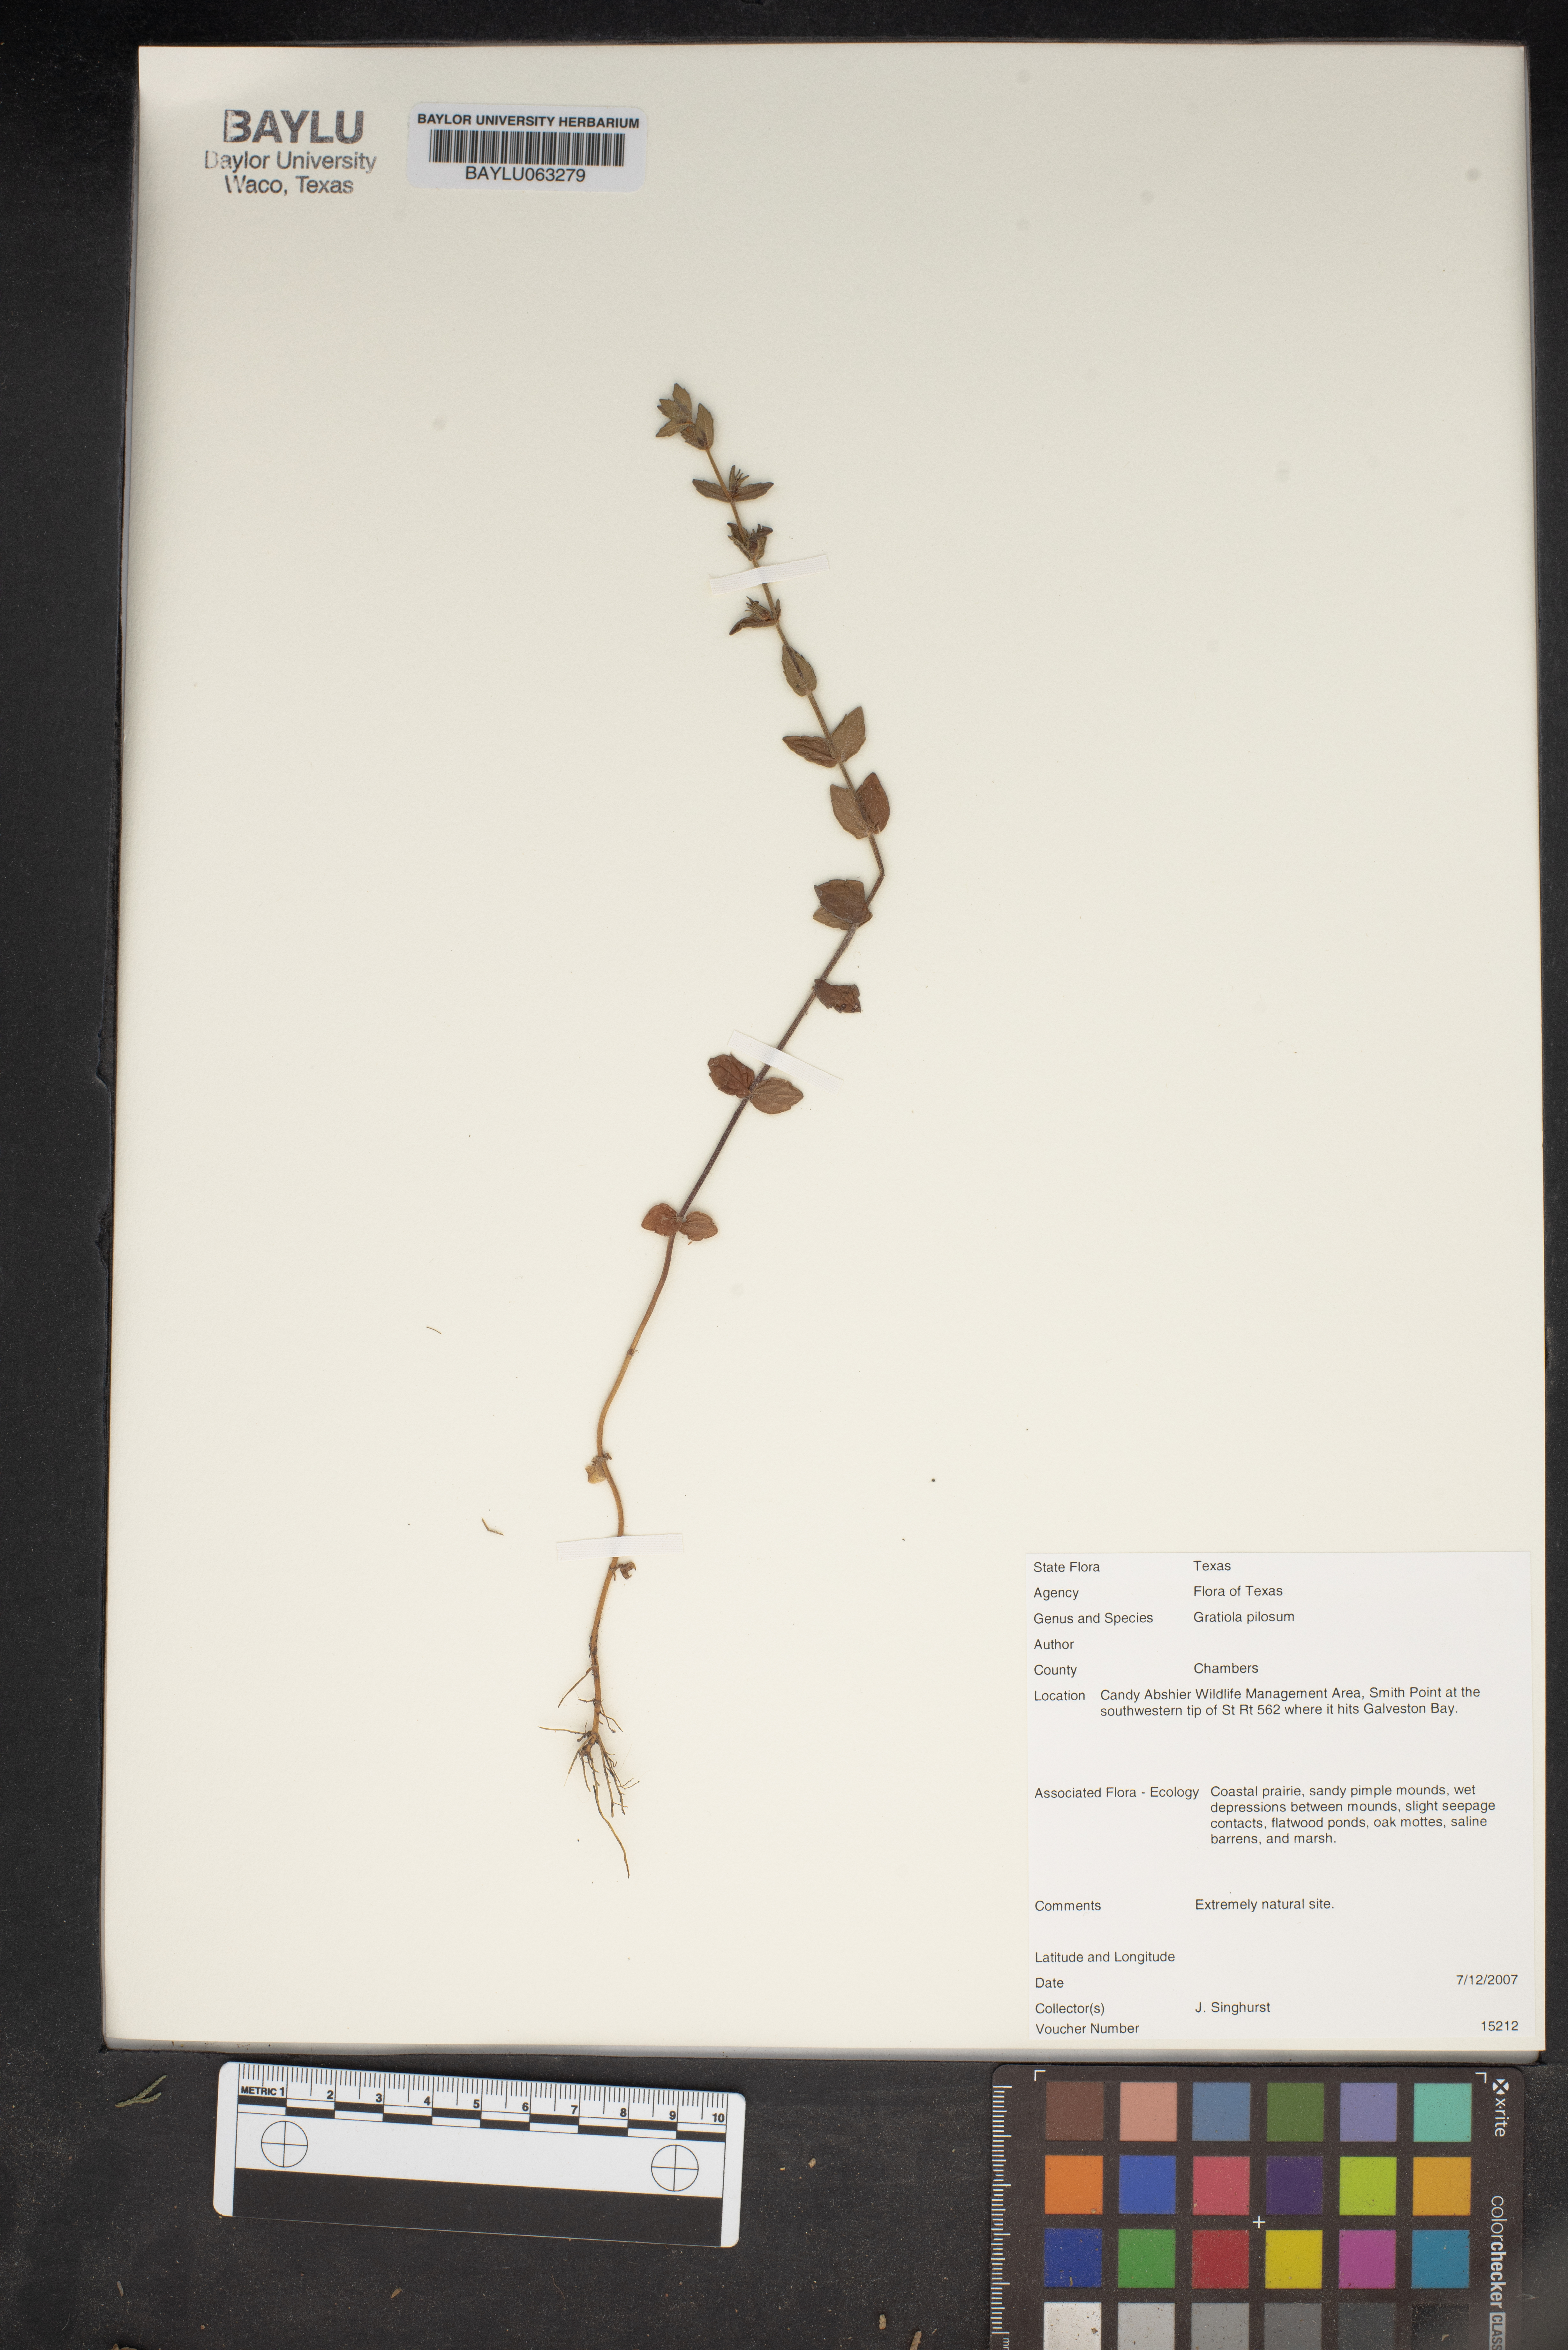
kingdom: Plantae
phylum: Tracheophyta
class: Magnoliopsida
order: Lamiales
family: Plantaginaceae
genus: Gratiola
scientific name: Gratiola pilosa
